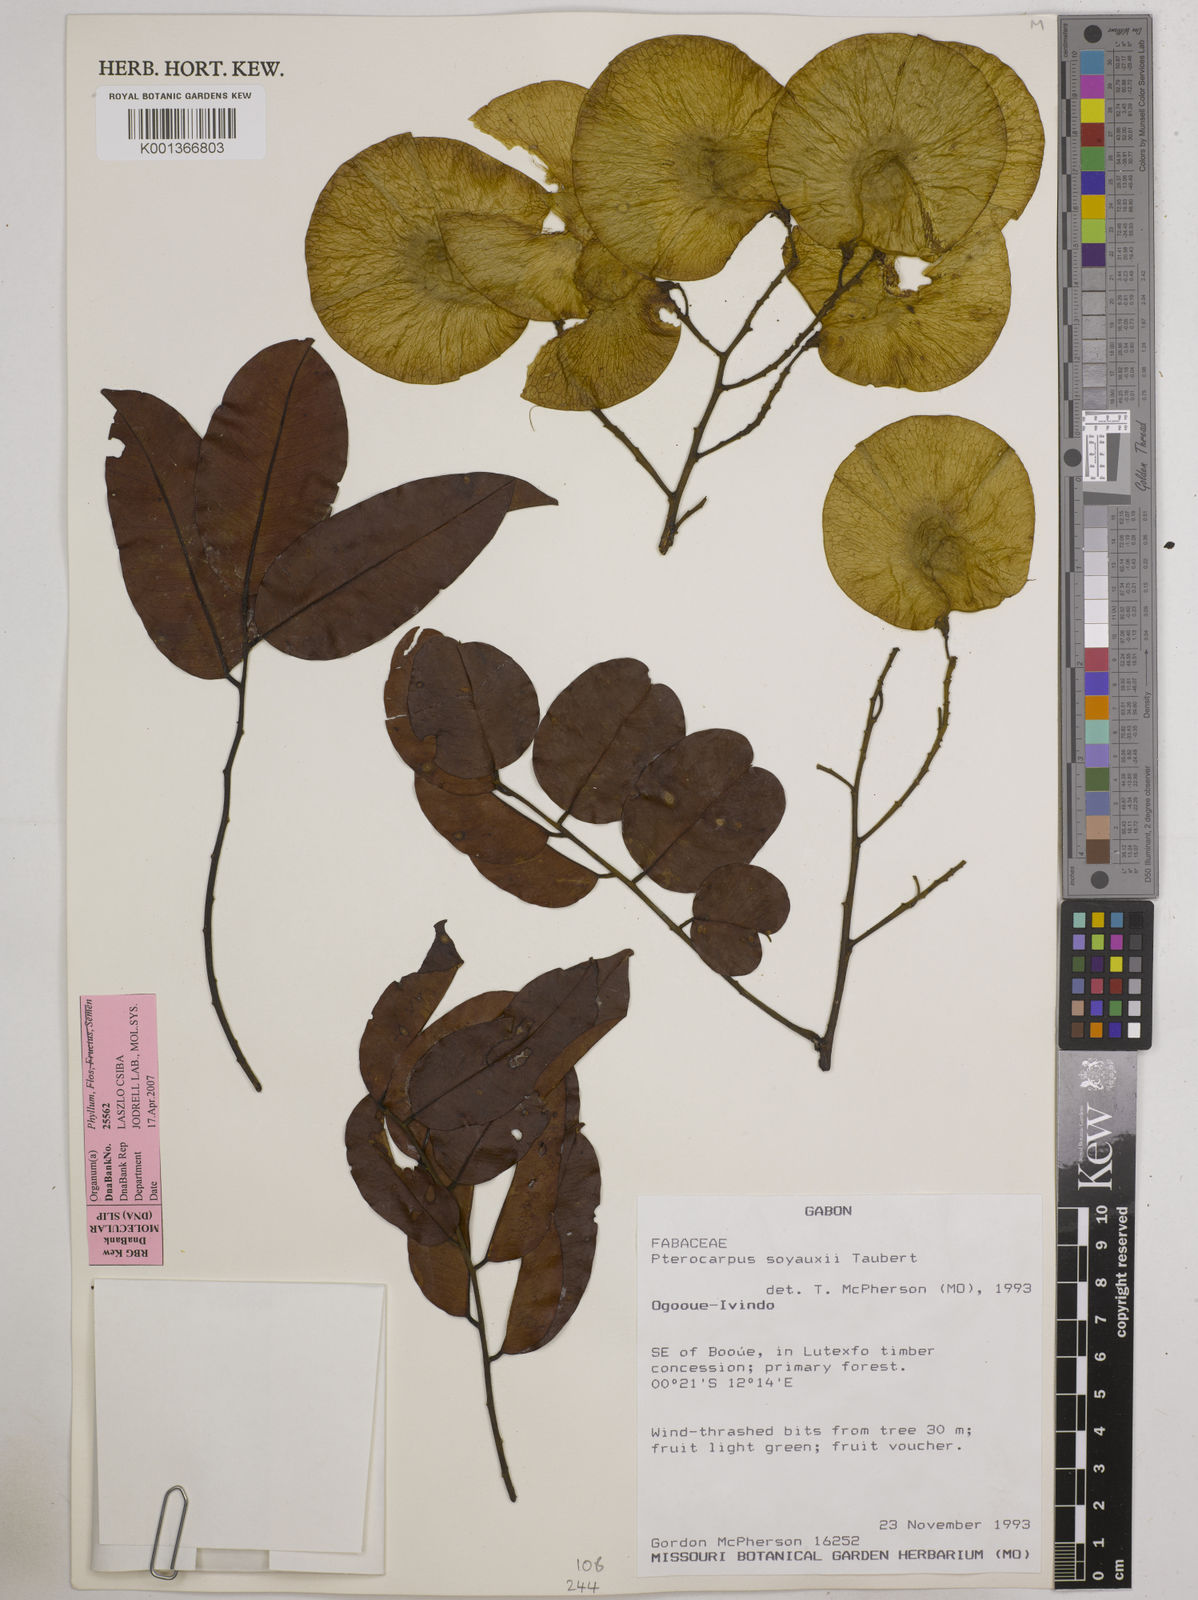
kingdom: Plantae
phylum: Tracheophyta
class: Magnoliopsida
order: Fabales
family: Fabaceae
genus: Pterocarpus
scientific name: Pterocarpus soyauxii
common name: African coralwood
